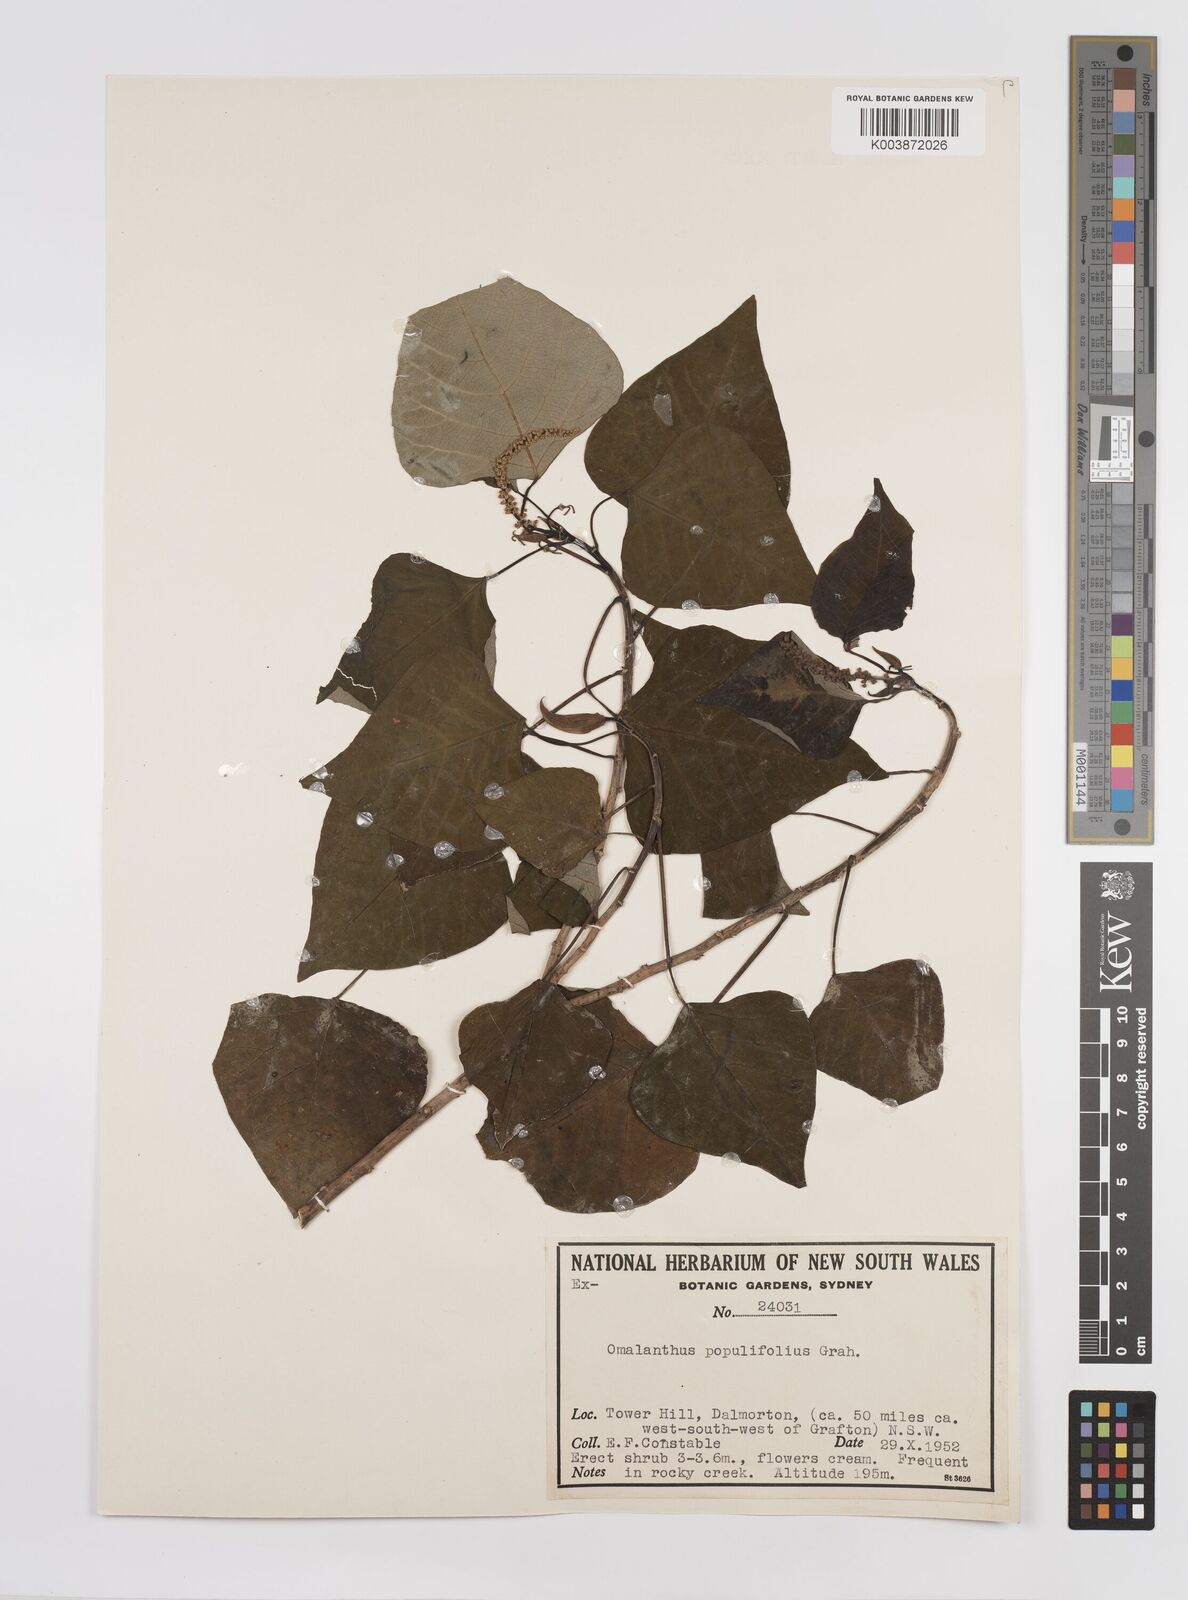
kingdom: Plantae
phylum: Tracheophyta
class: Magnoliopsida
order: Malpighiales
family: Euphorbiaceae
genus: Homalanthus
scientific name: Homalanthus populifolius
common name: Queensland poplar
